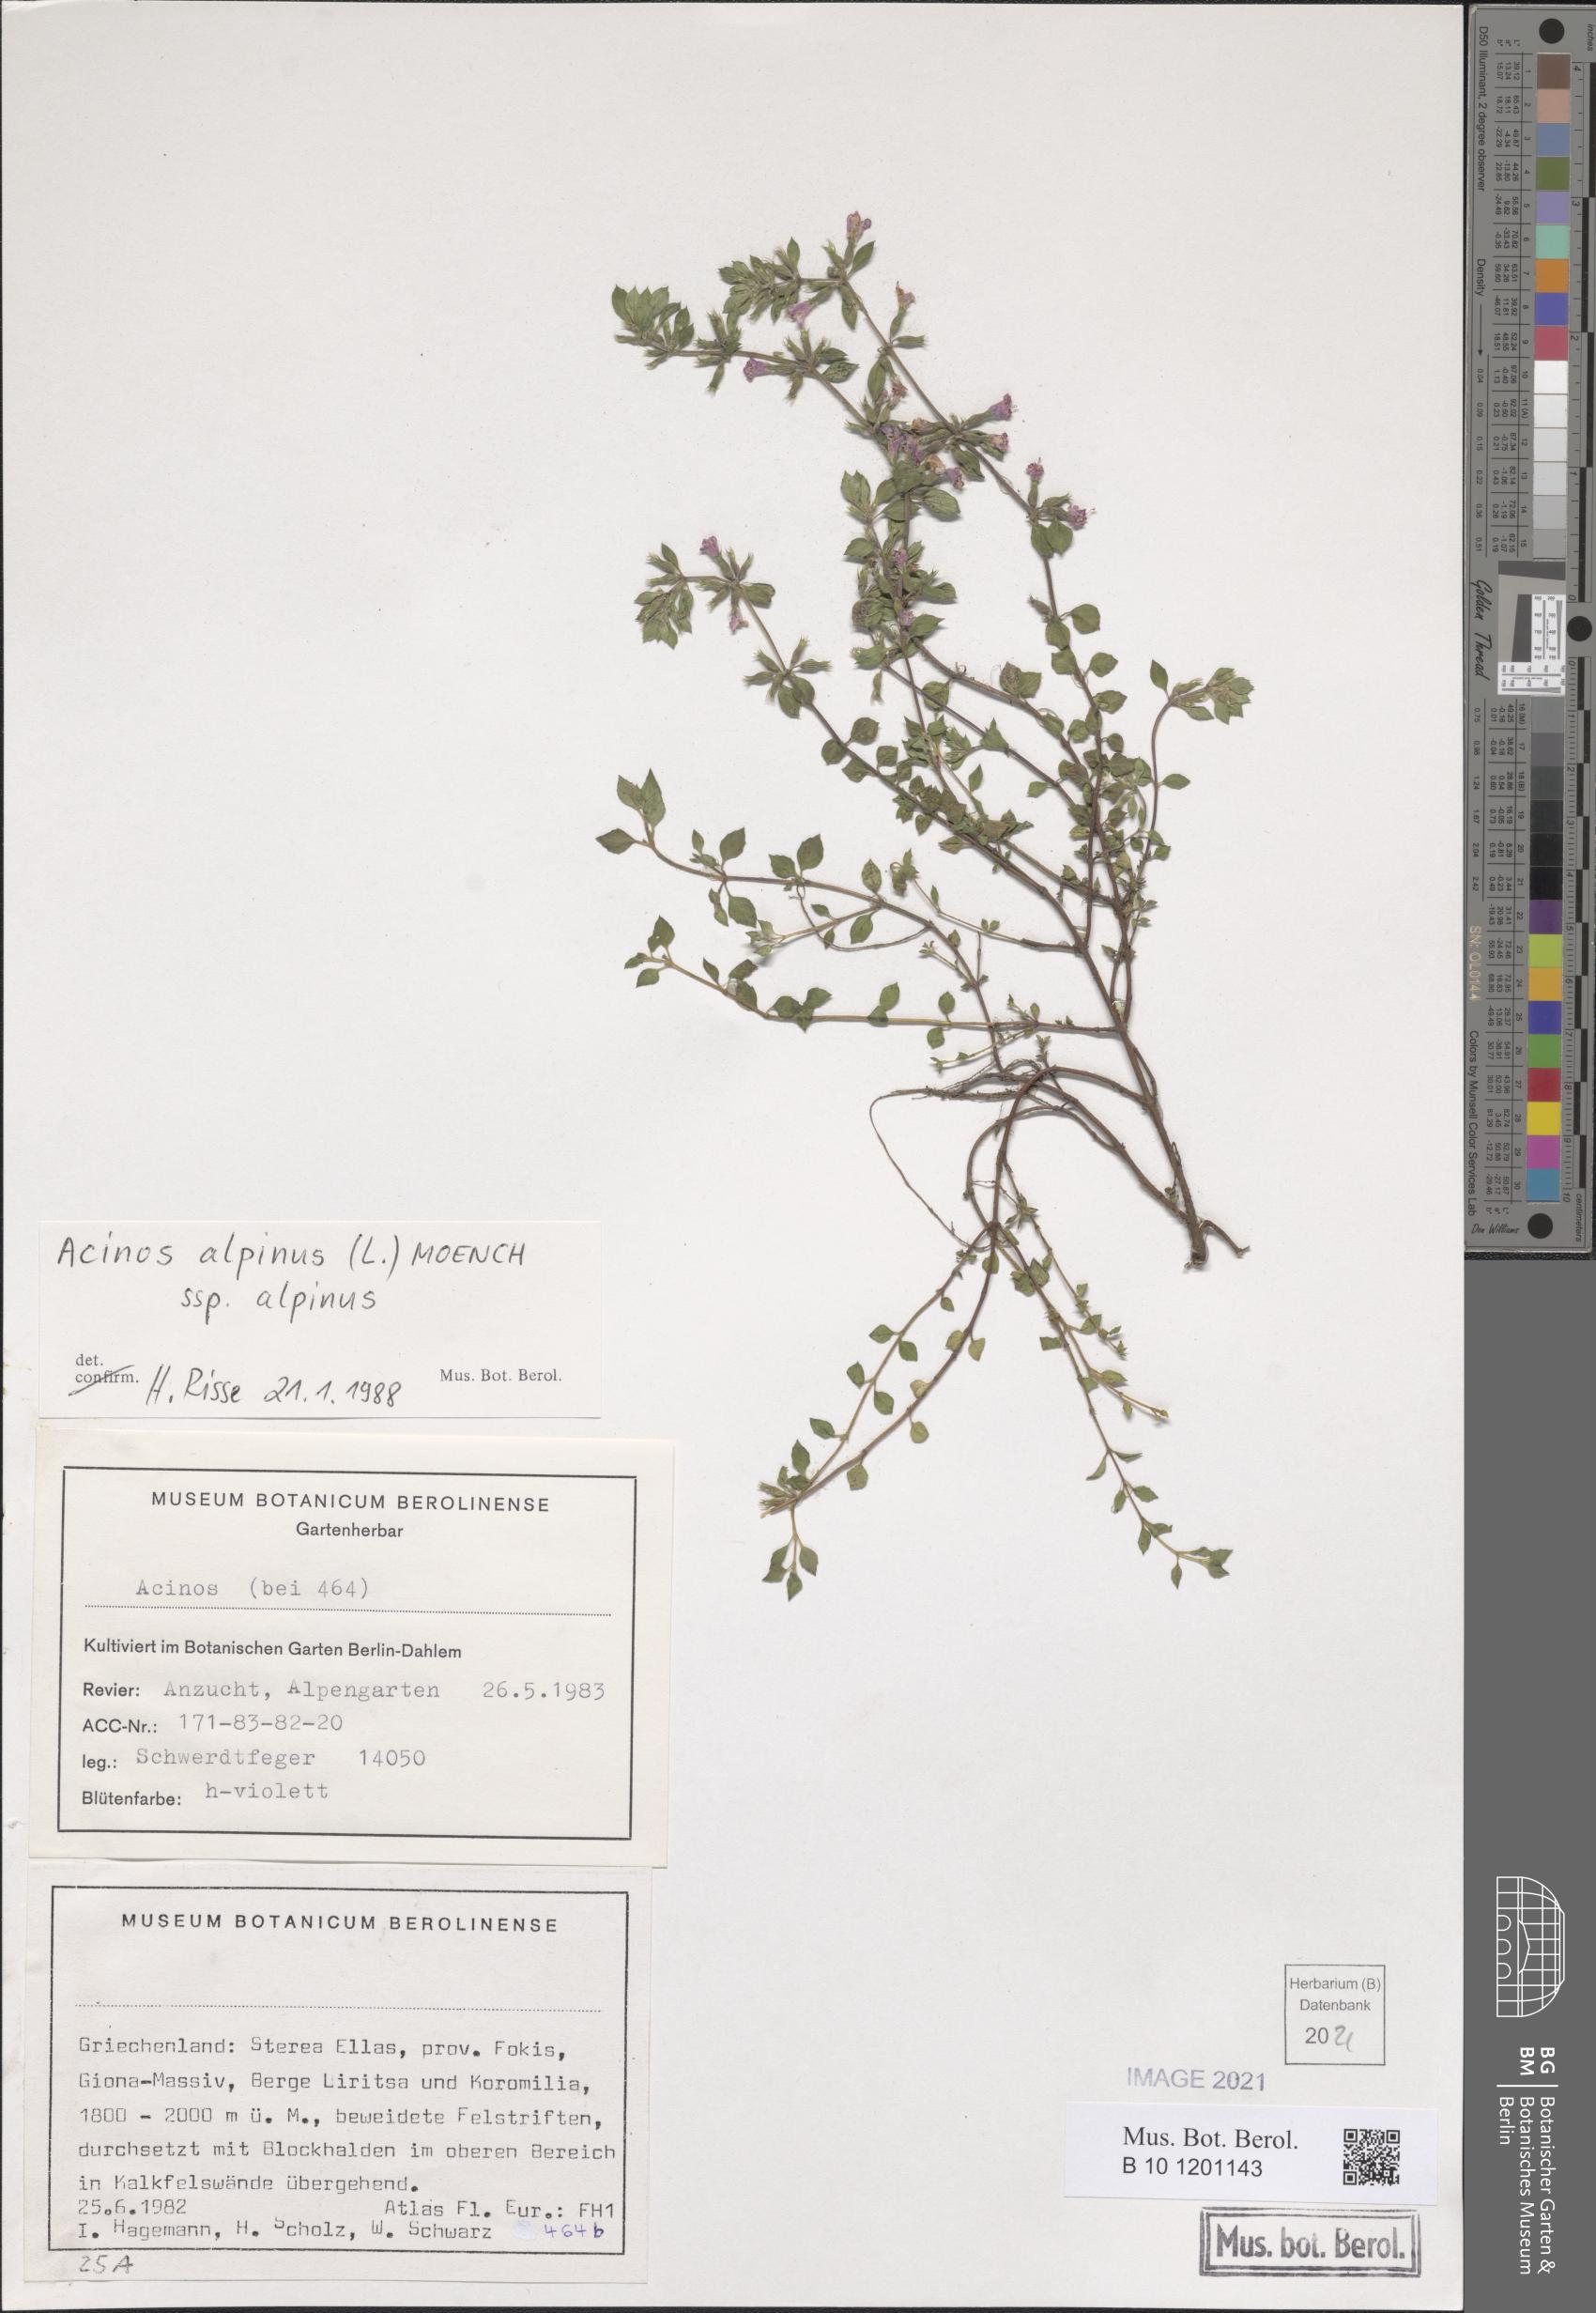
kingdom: Plantae
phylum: Tracheophyta
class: Magnoliopsida
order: Lamiales
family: Lamiaceae
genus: Clinopodium
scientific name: Clinopodium alpinum
